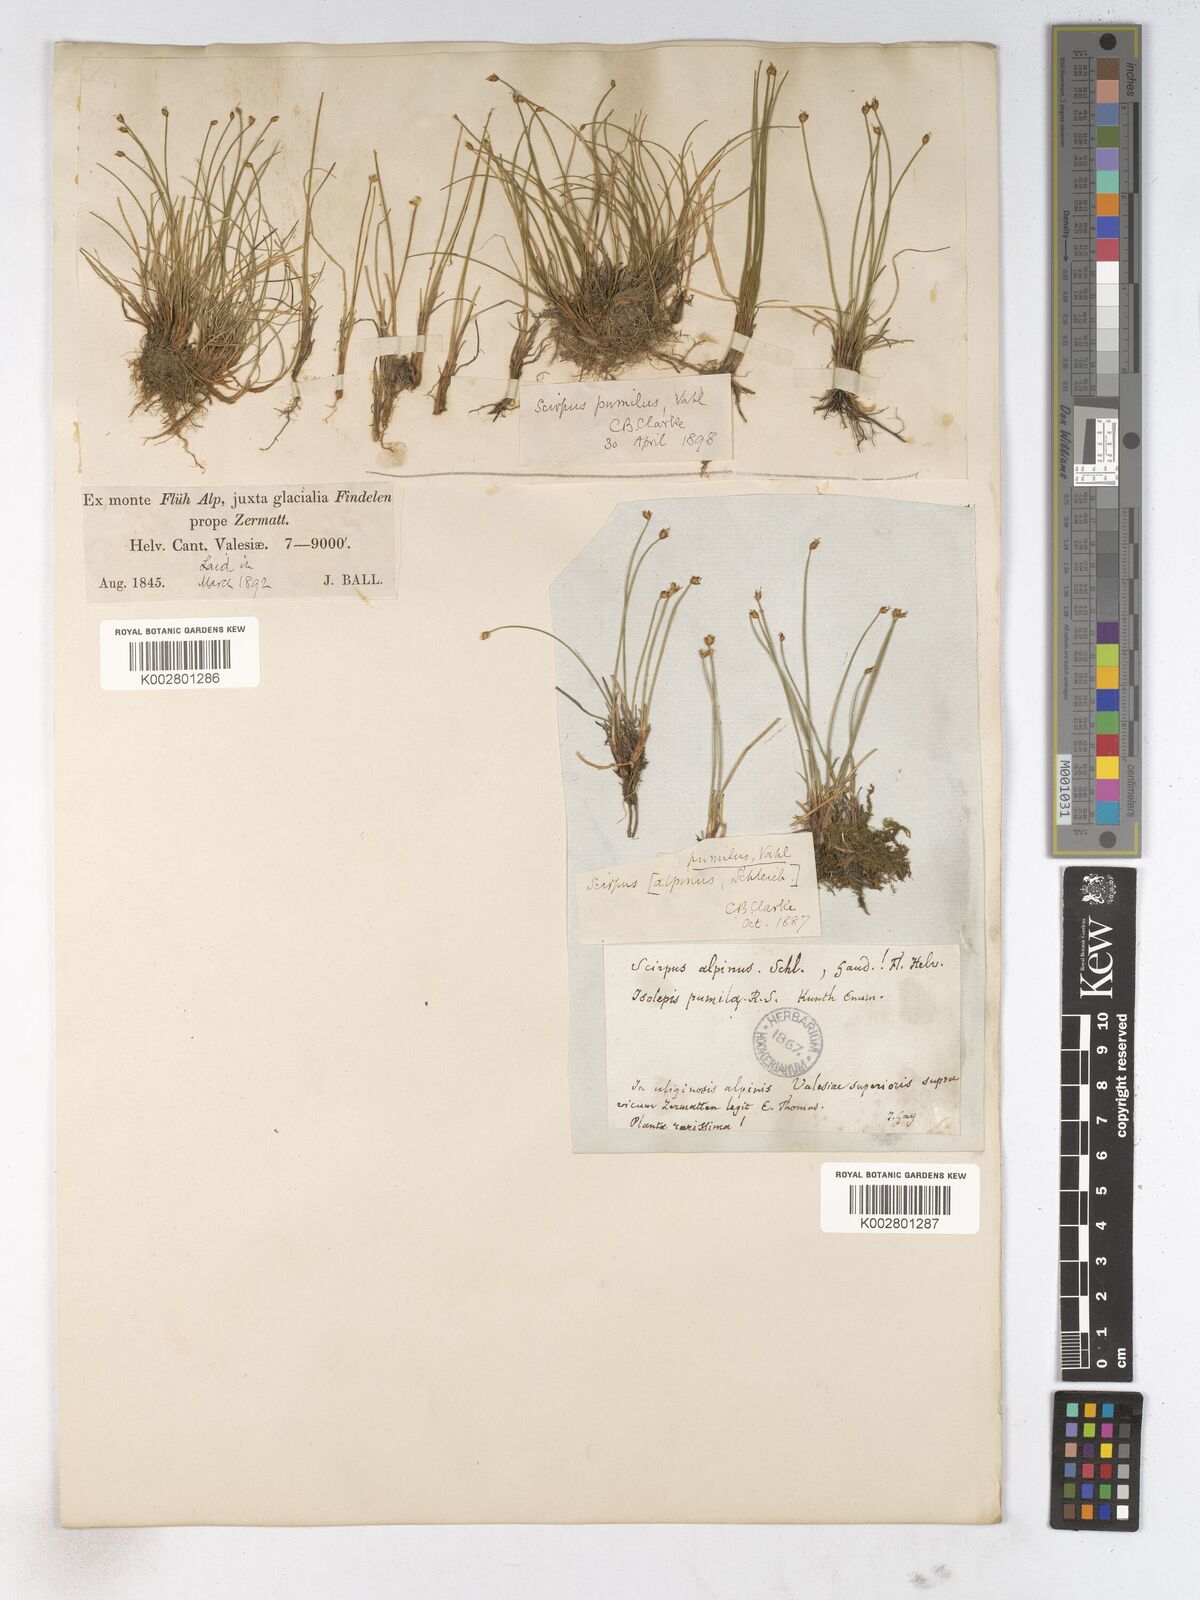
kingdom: Plantae
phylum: Tracheophyta
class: Liliopsida
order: Poales
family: Cyperaceae
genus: Trichophorum
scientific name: Trichophorum pumilum
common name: Rolland's bulrush
